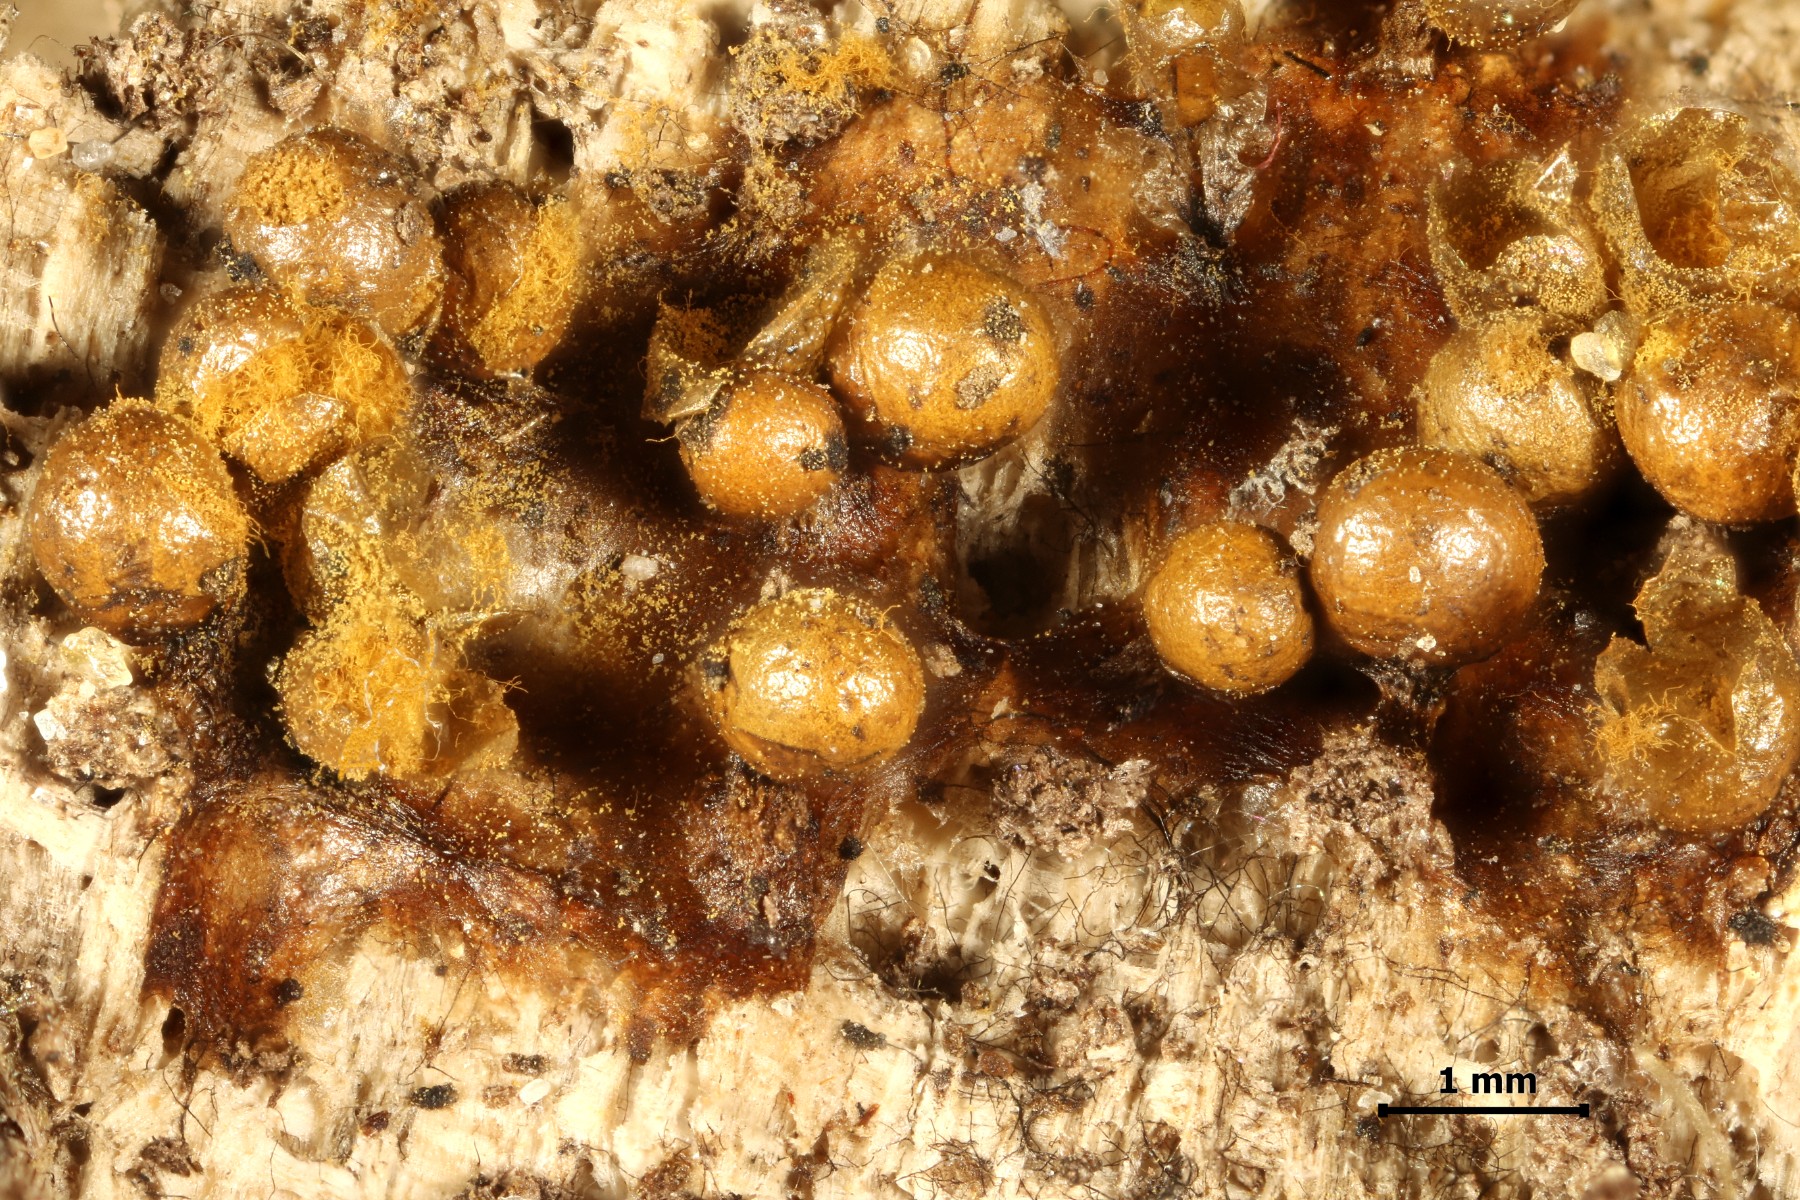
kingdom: Protozoa
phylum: Mycetozoa
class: Myxomycetes
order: Trichiales
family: Trichiaceae
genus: Trichia
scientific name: Trichia varia
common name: foranderlig hårbold
